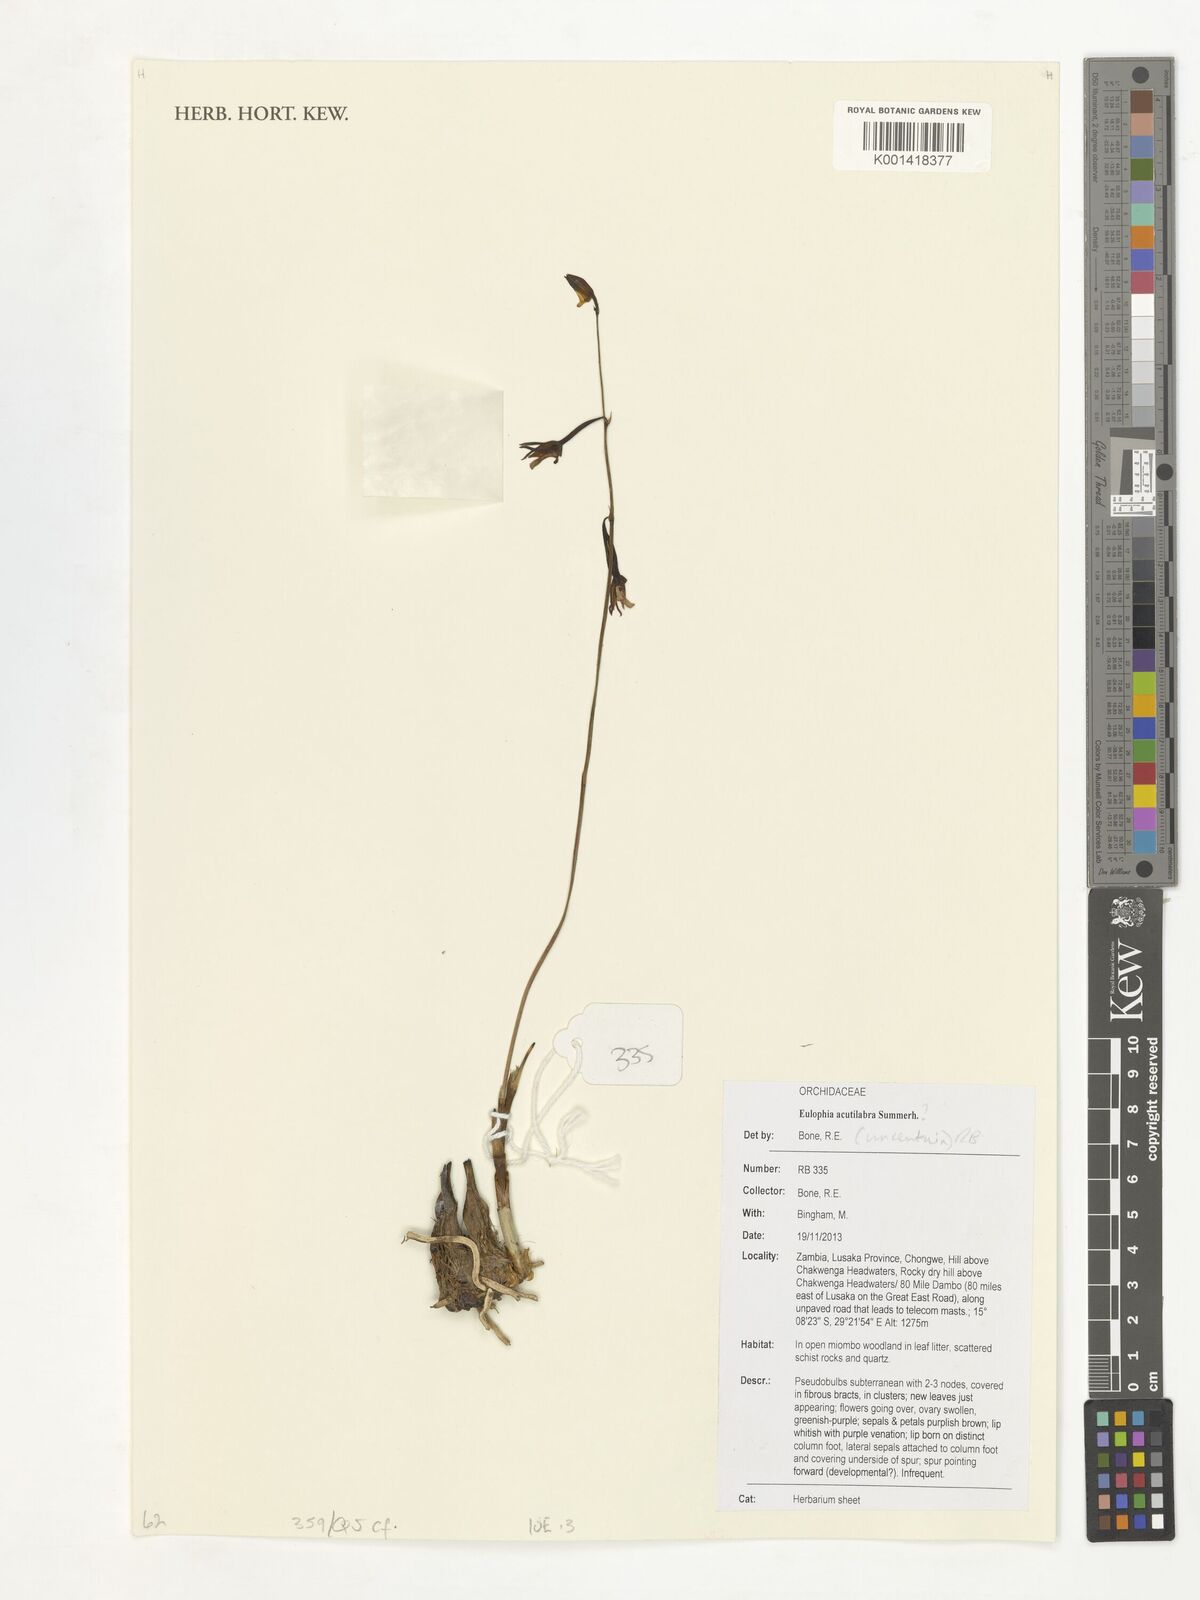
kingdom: Plantae
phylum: Tracheophyta
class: Liliopsida
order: Asparagales
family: Orchidaceae
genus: Eulophia
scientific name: Eulophia acutilabra
